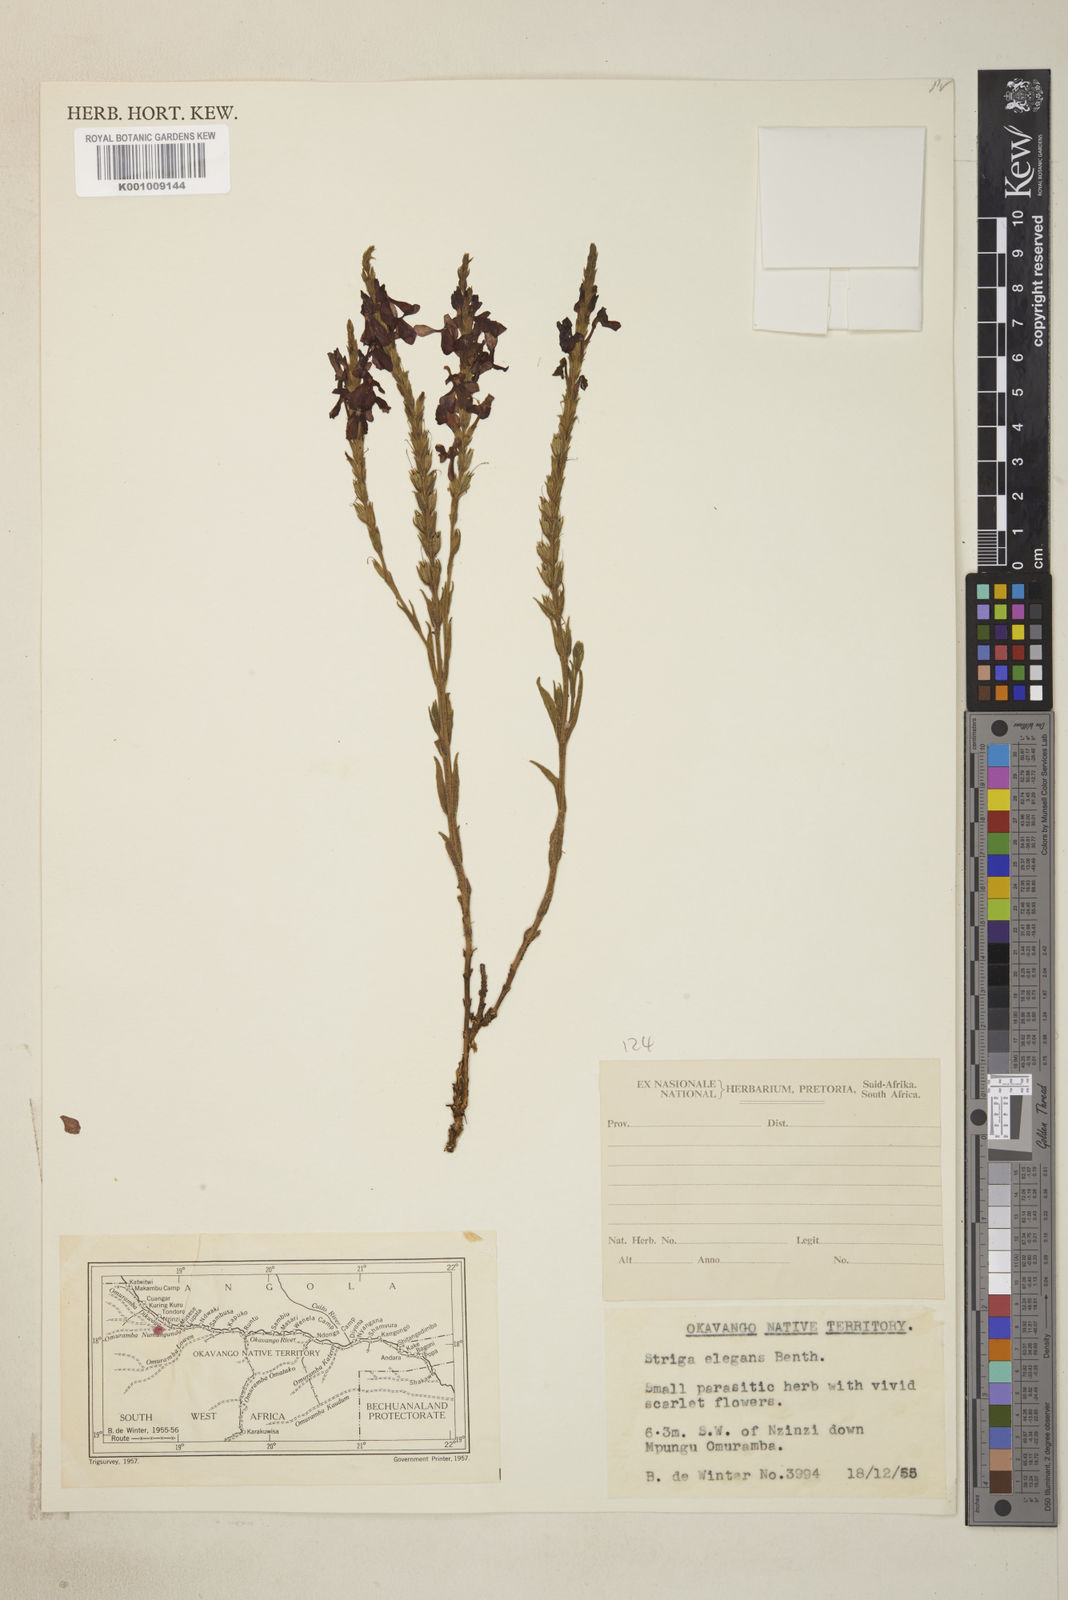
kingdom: Plantae
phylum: Tracheophyta
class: Magnoliopsida
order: Lamiales
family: Orobanchaceae
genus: Striga
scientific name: Striga elegans
